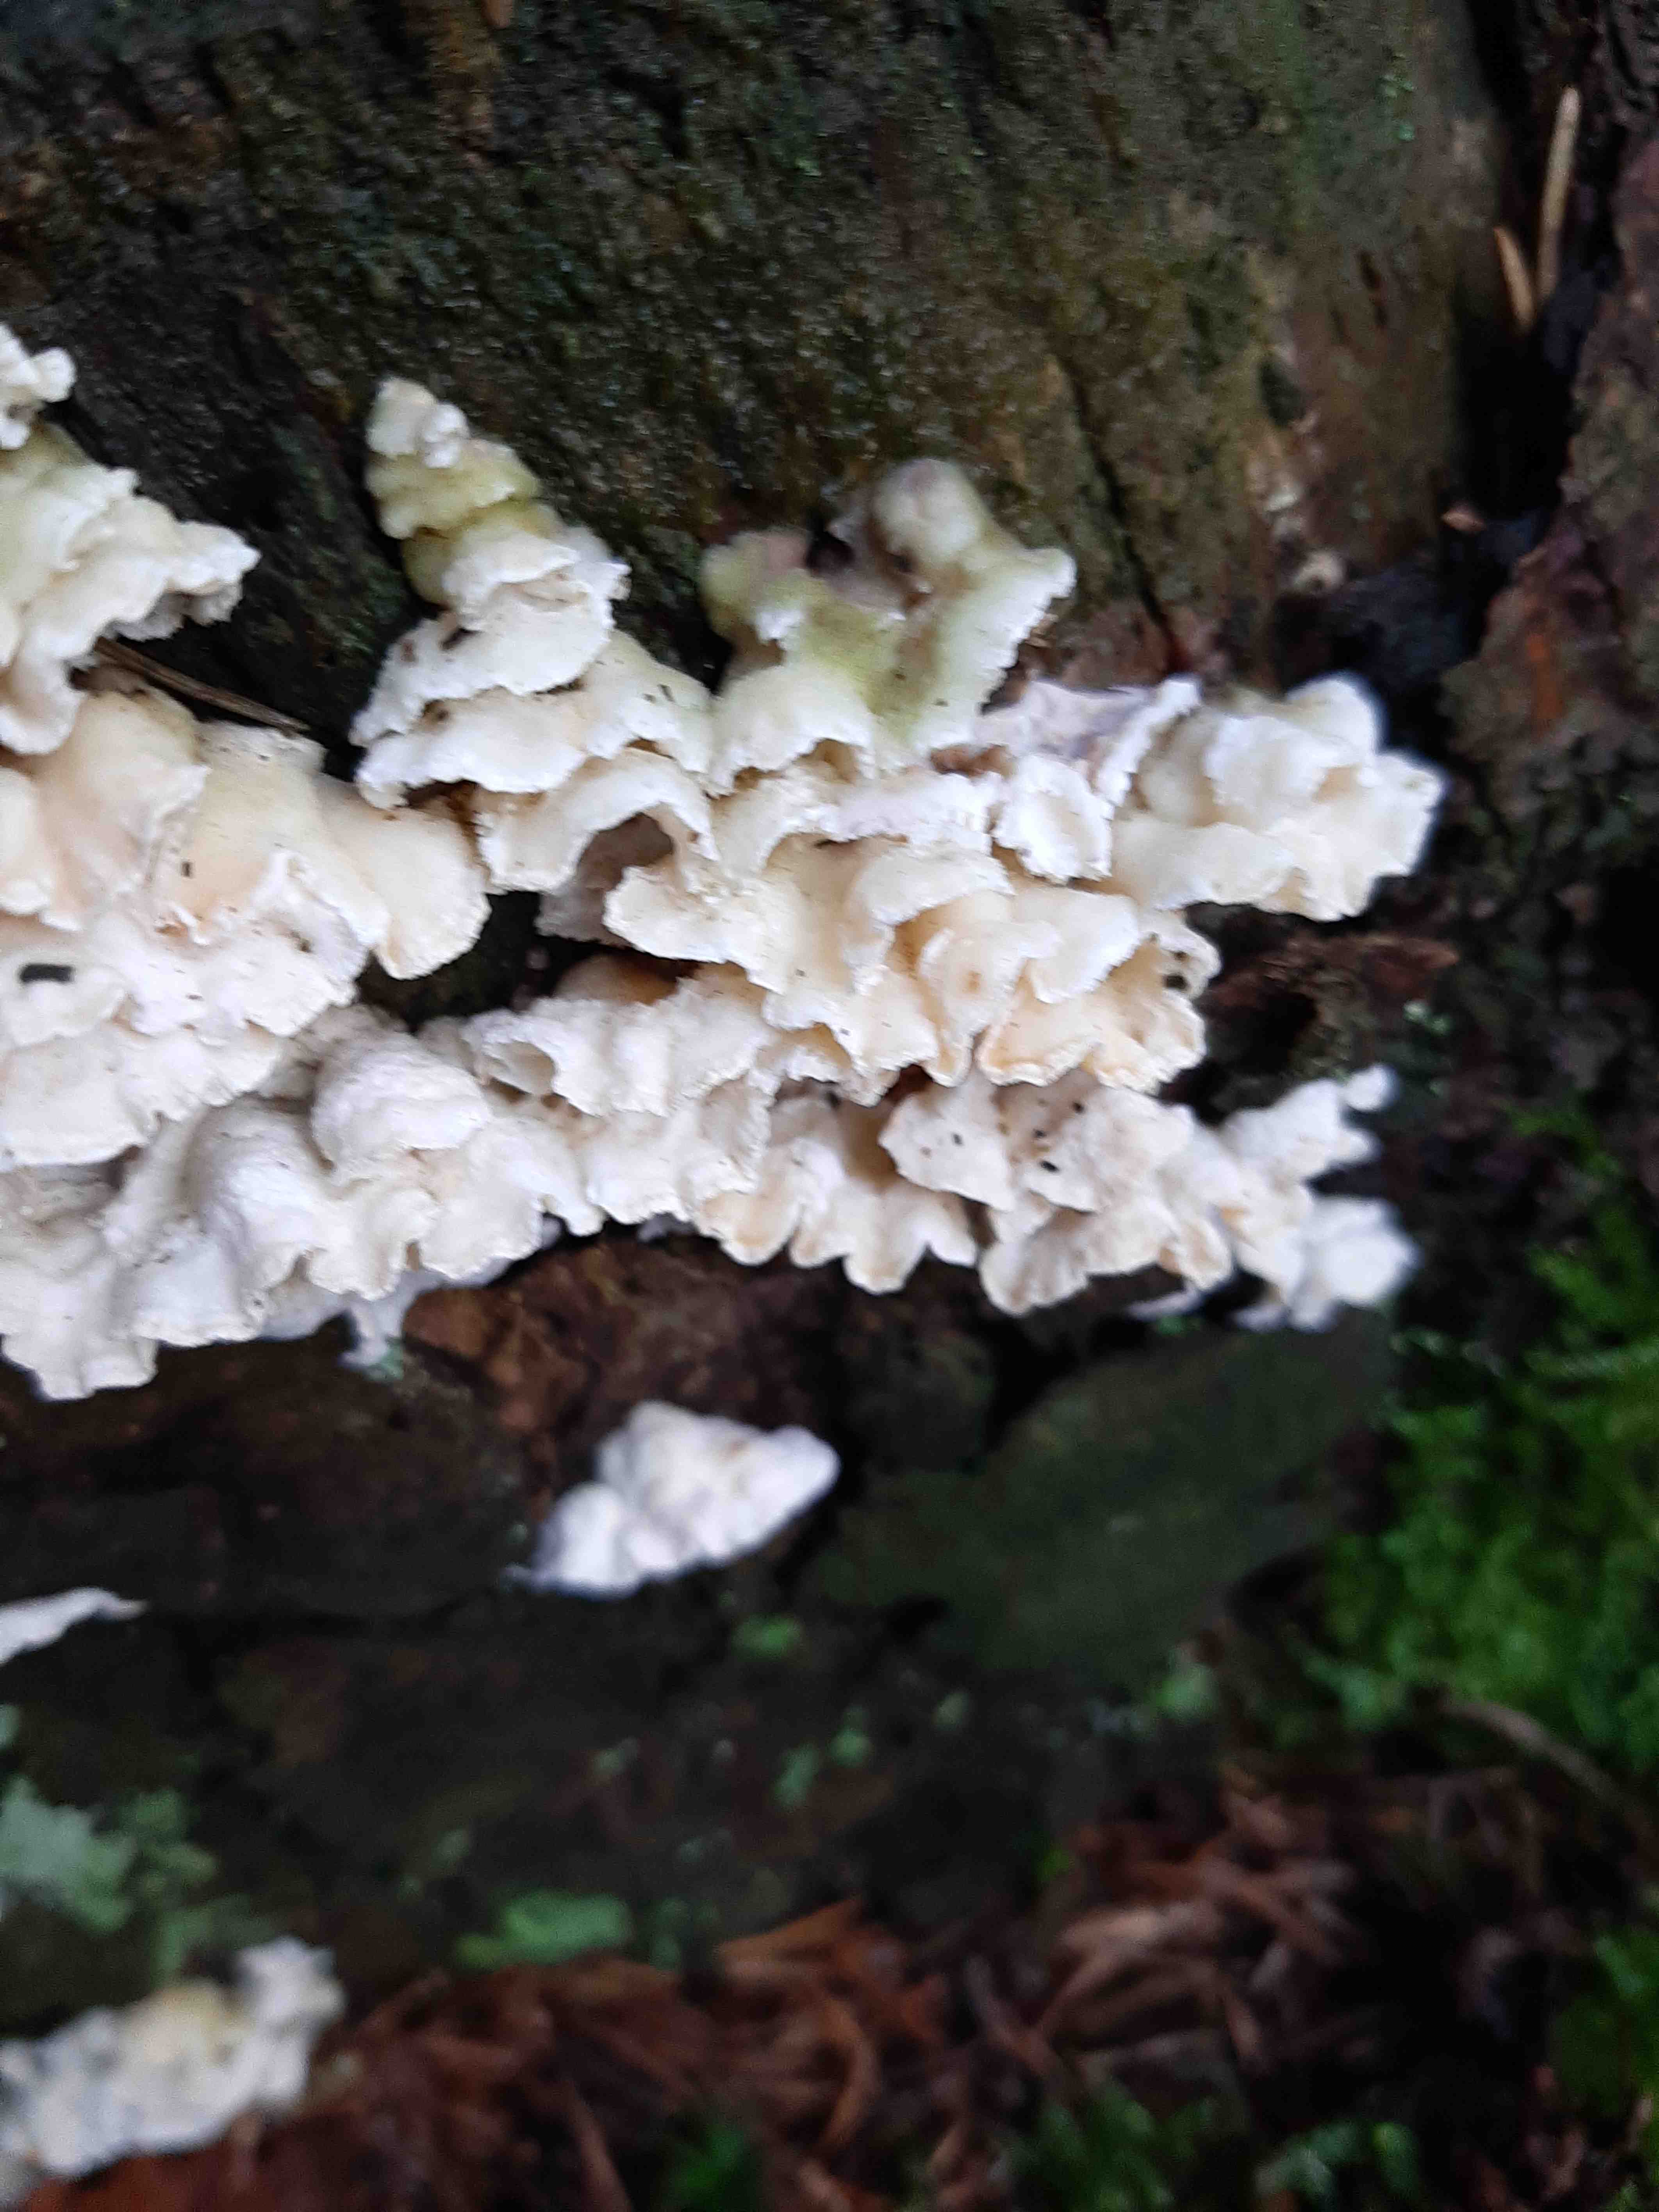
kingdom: Fungi
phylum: Basidiomycota
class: Agaricomycetes
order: Polyporales
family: Incrustoporiaceae
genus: Skeletocutis
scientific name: Skeletocutis
